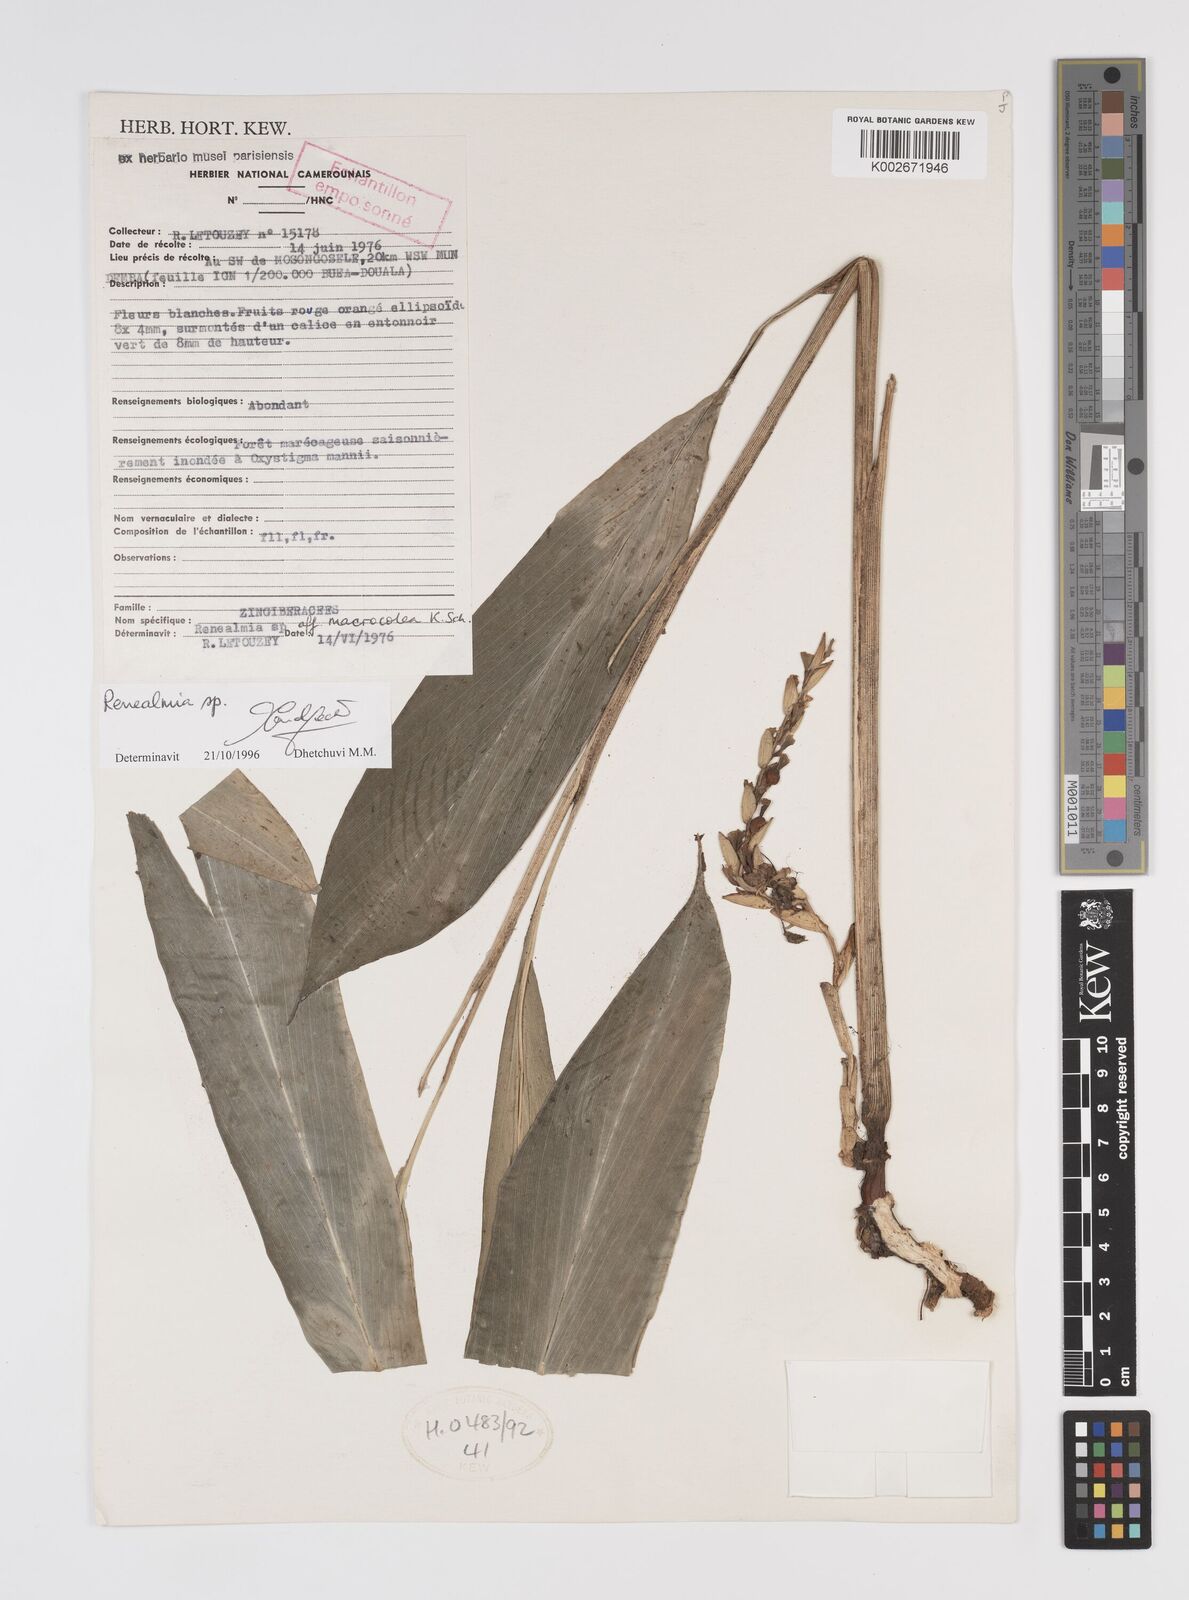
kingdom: Plantae
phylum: Tracheophyta
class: Liliopsida
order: Zingiberales
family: Zingiberaceae
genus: Renealmia
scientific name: Renealmia
